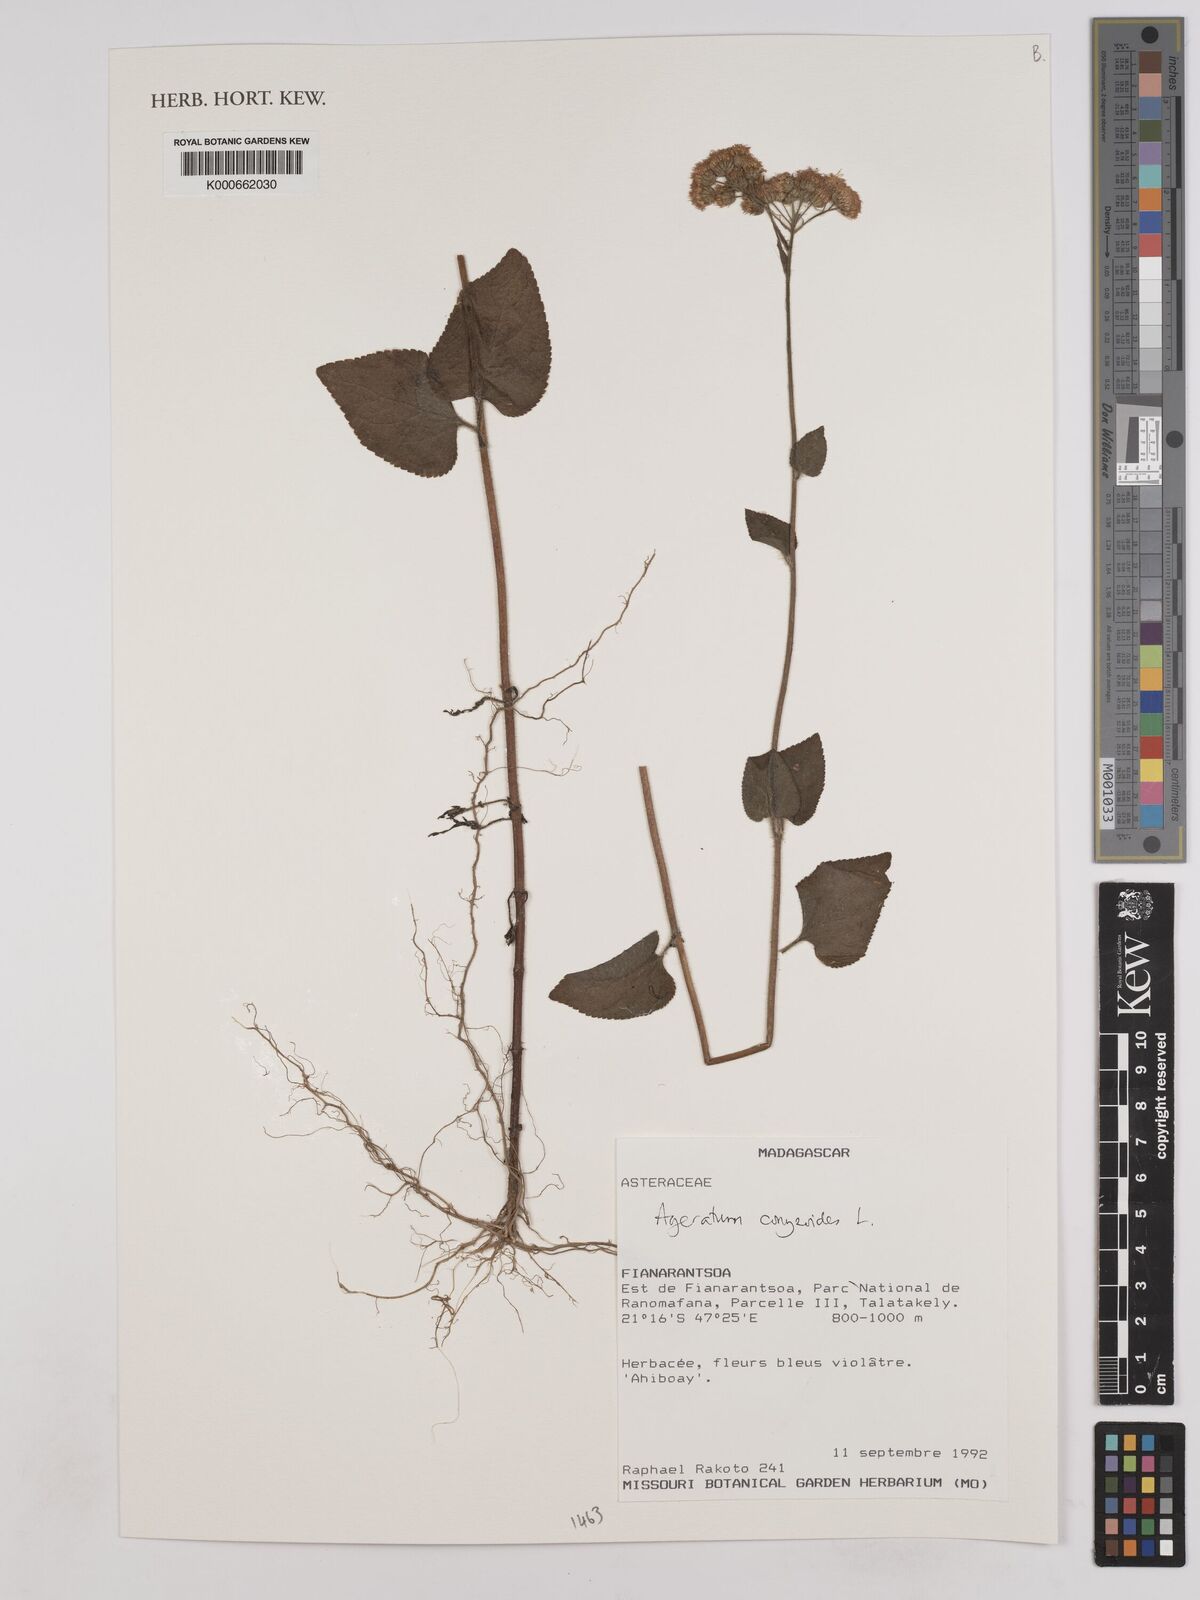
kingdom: Plantae
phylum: Tracheophyta
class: Magnoliopsida
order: Asterales
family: Asteraceae
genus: Ageratum
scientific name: Ageratum conyzoides
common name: Tropical whiteweed
